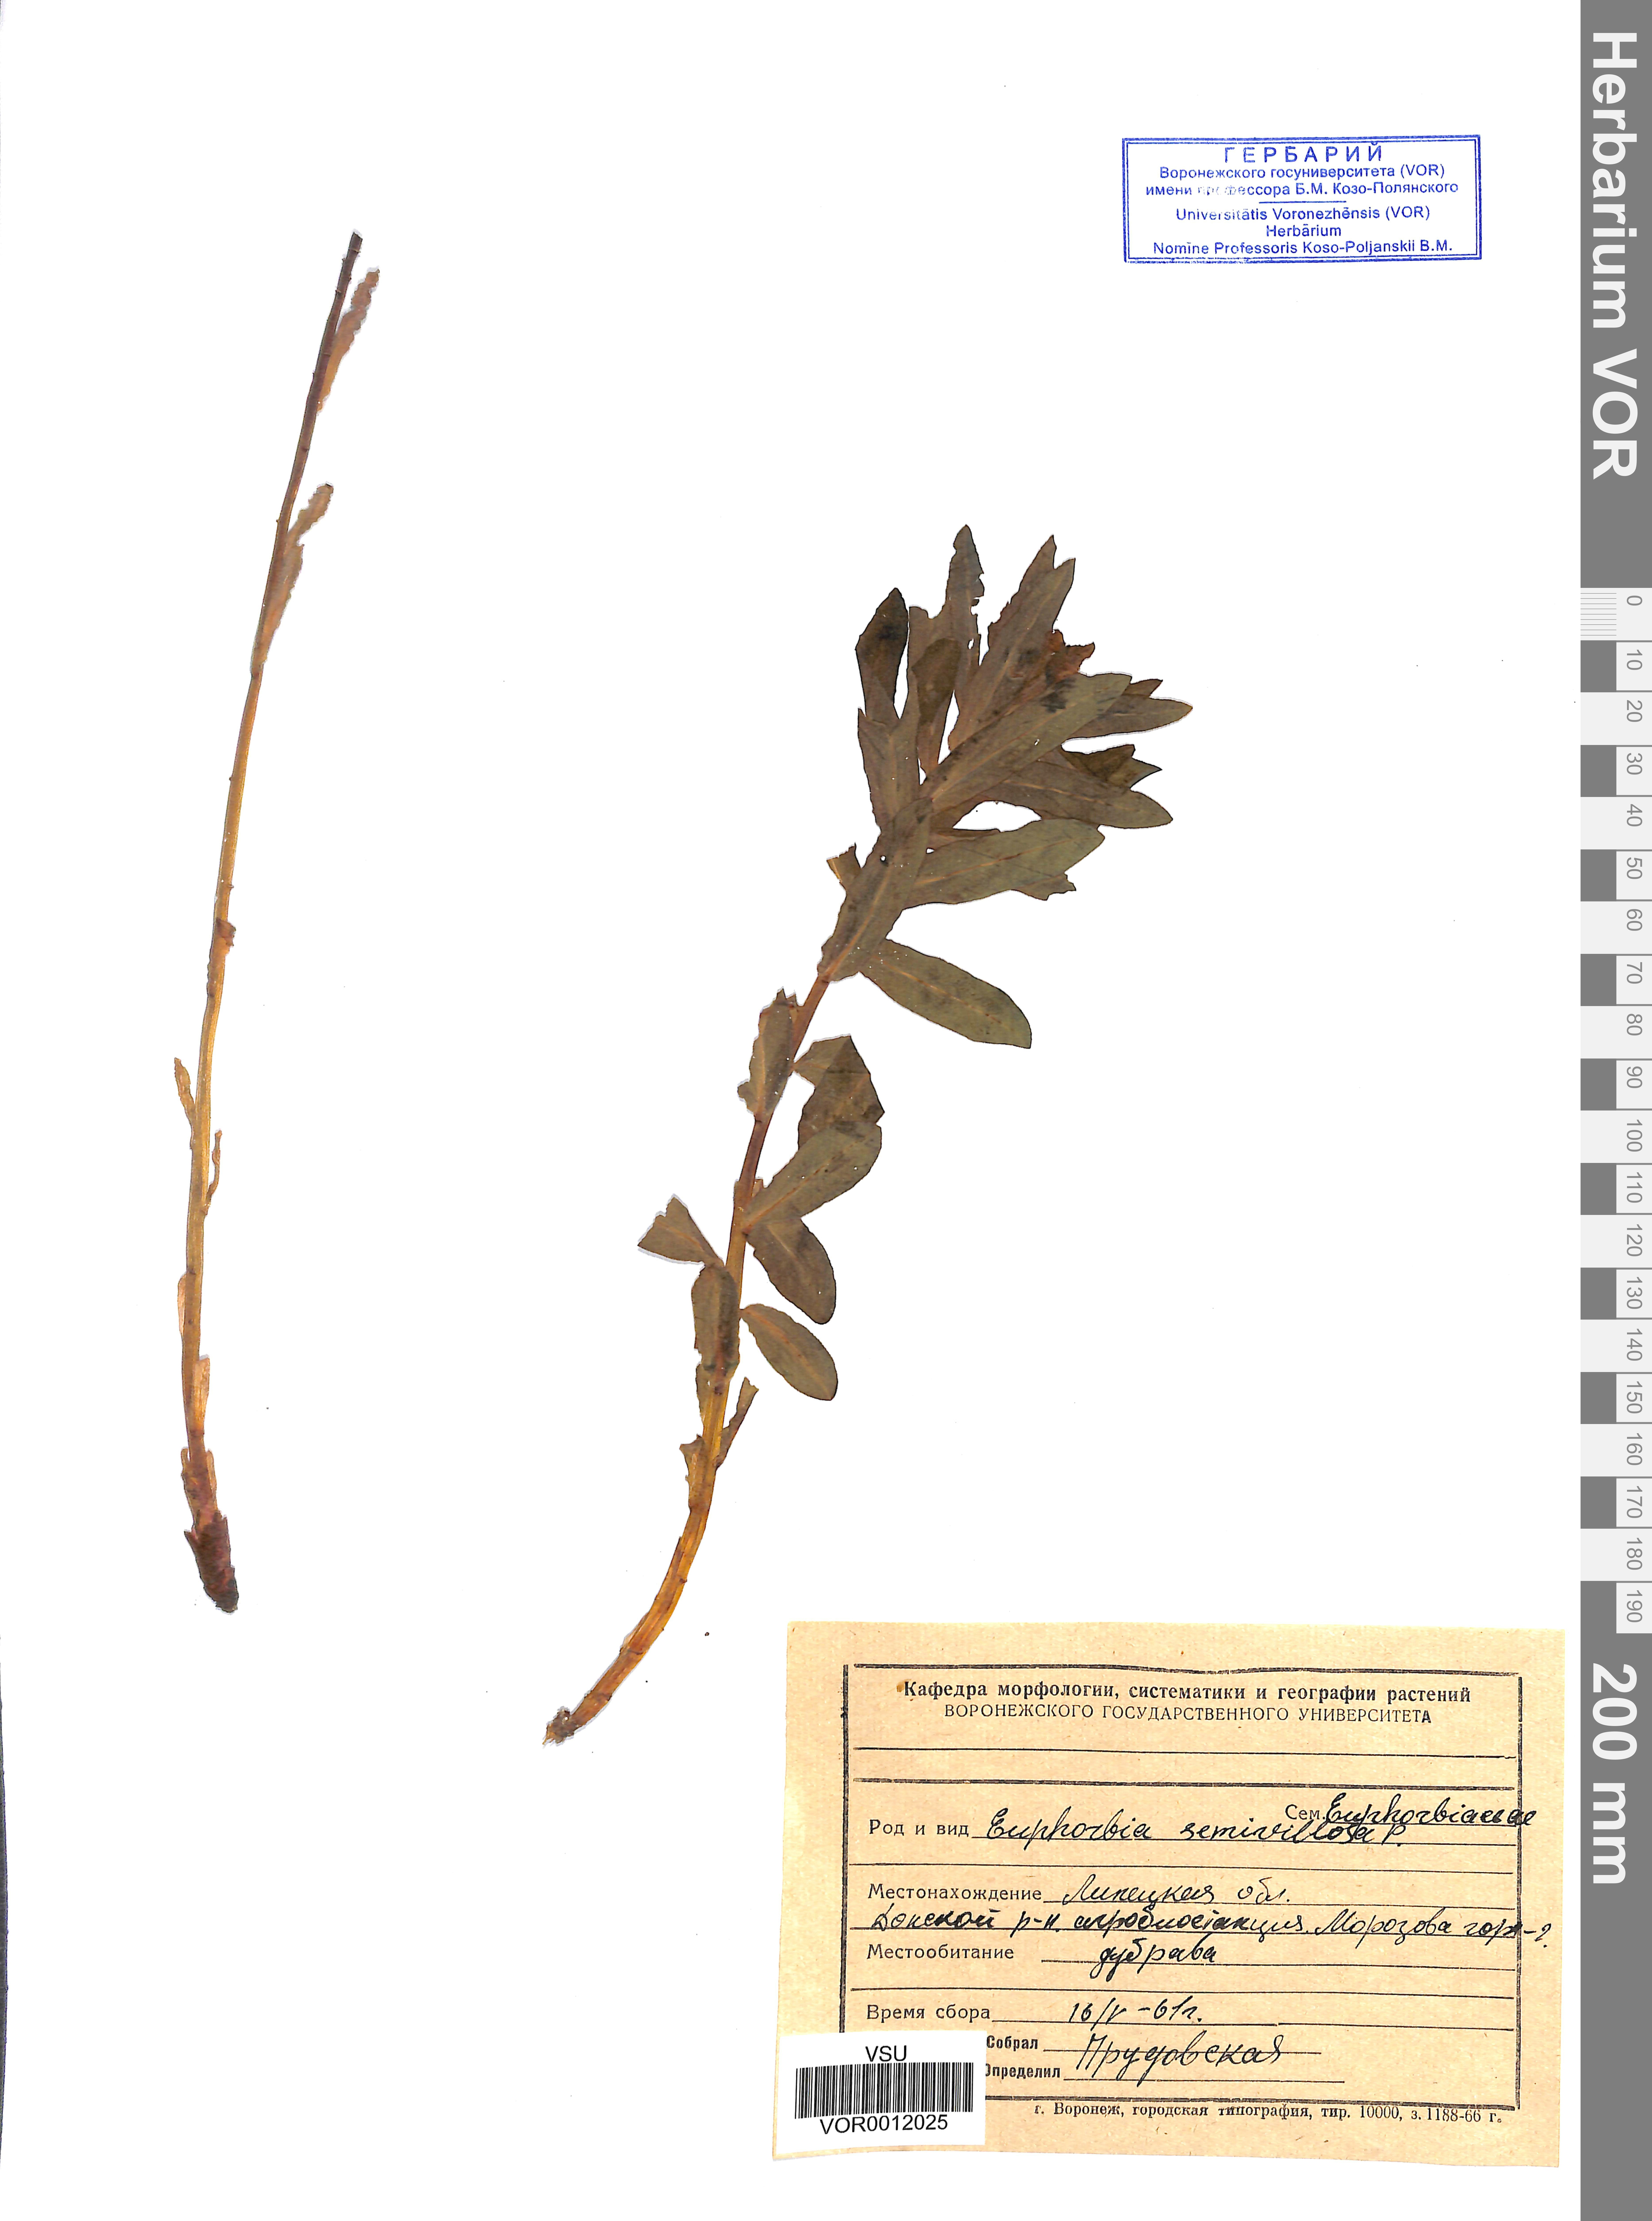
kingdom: Plantae
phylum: Tracheophyta
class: Magnoliopsida
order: Malpighiales
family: Euphorbiaceae
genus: Euphorbia
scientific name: Euphorbia semivillosa
